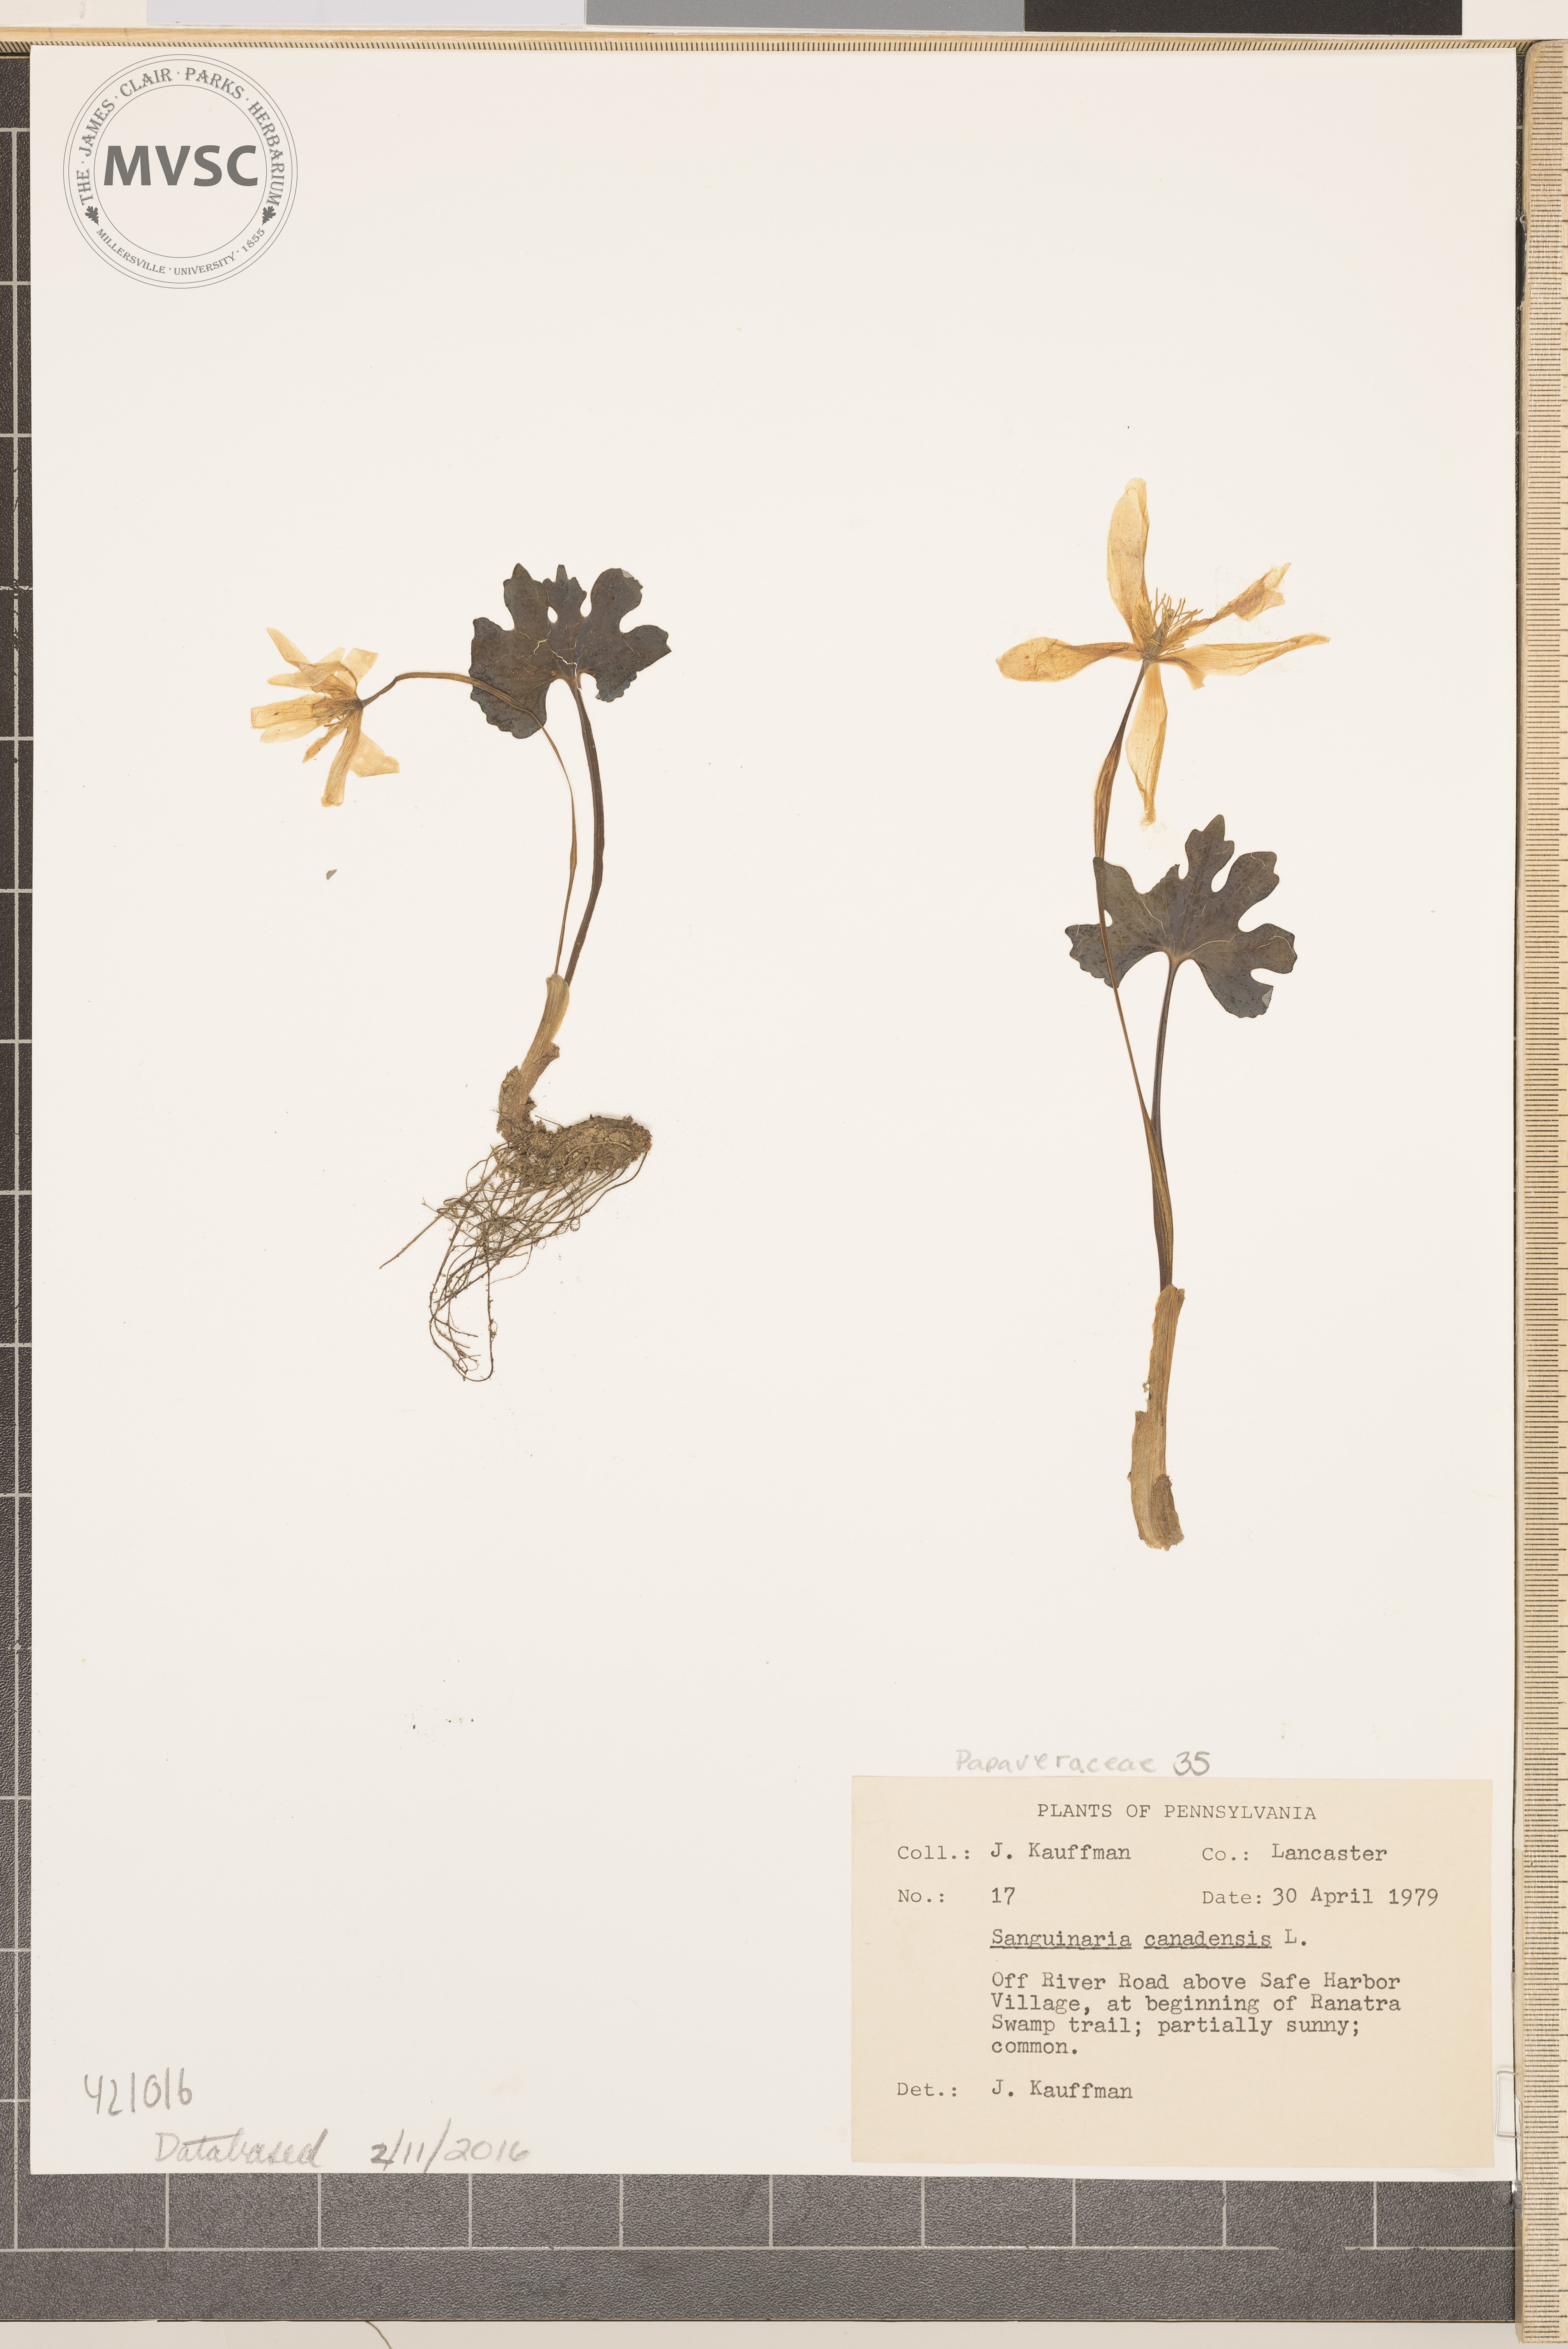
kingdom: Plantae
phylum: Tracheophyta
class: Magnoliopsida
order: Ranunculales
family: Papaveraceae
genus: Sanguinaria
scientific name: Sanguinaria canadensis
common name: Bloodroot
